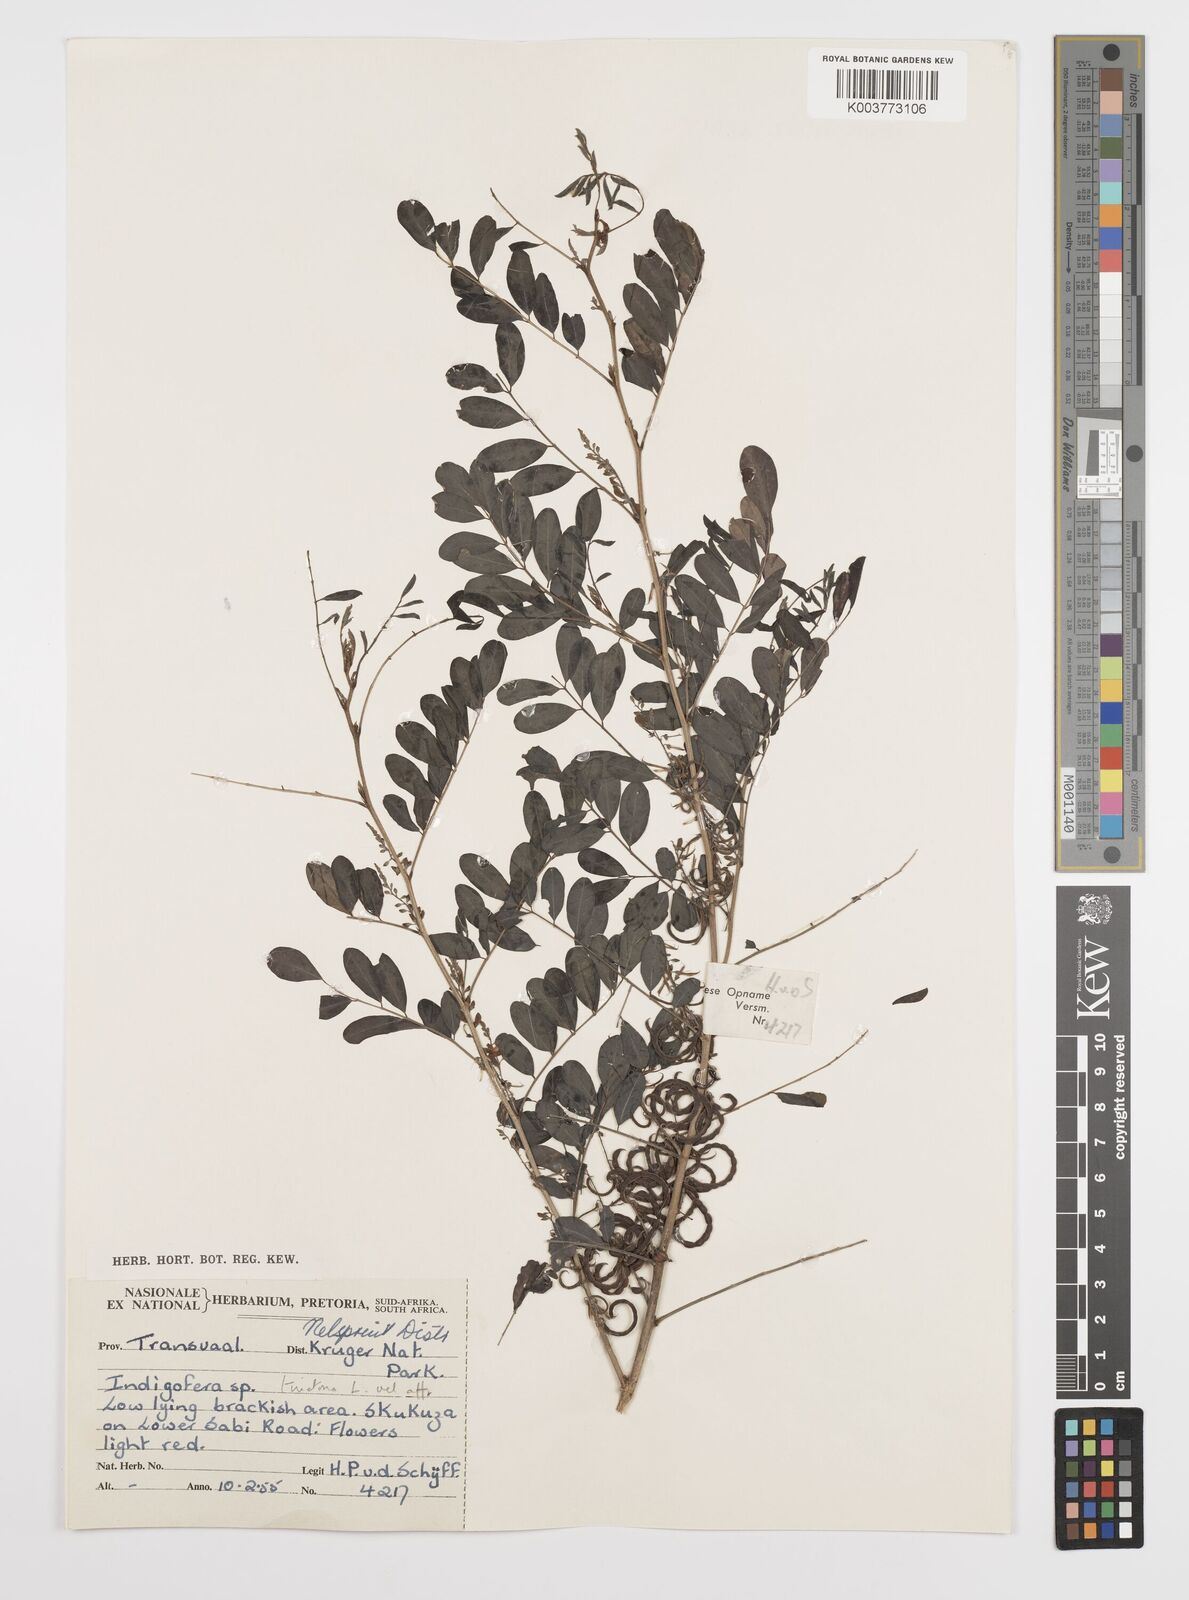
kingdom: Plantae
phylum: Tracheophyta
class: Magnoliopsida
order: Fabales
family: Fabaceae
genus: Indigofera
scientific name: Indigofera tinctoria
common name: True indigo
